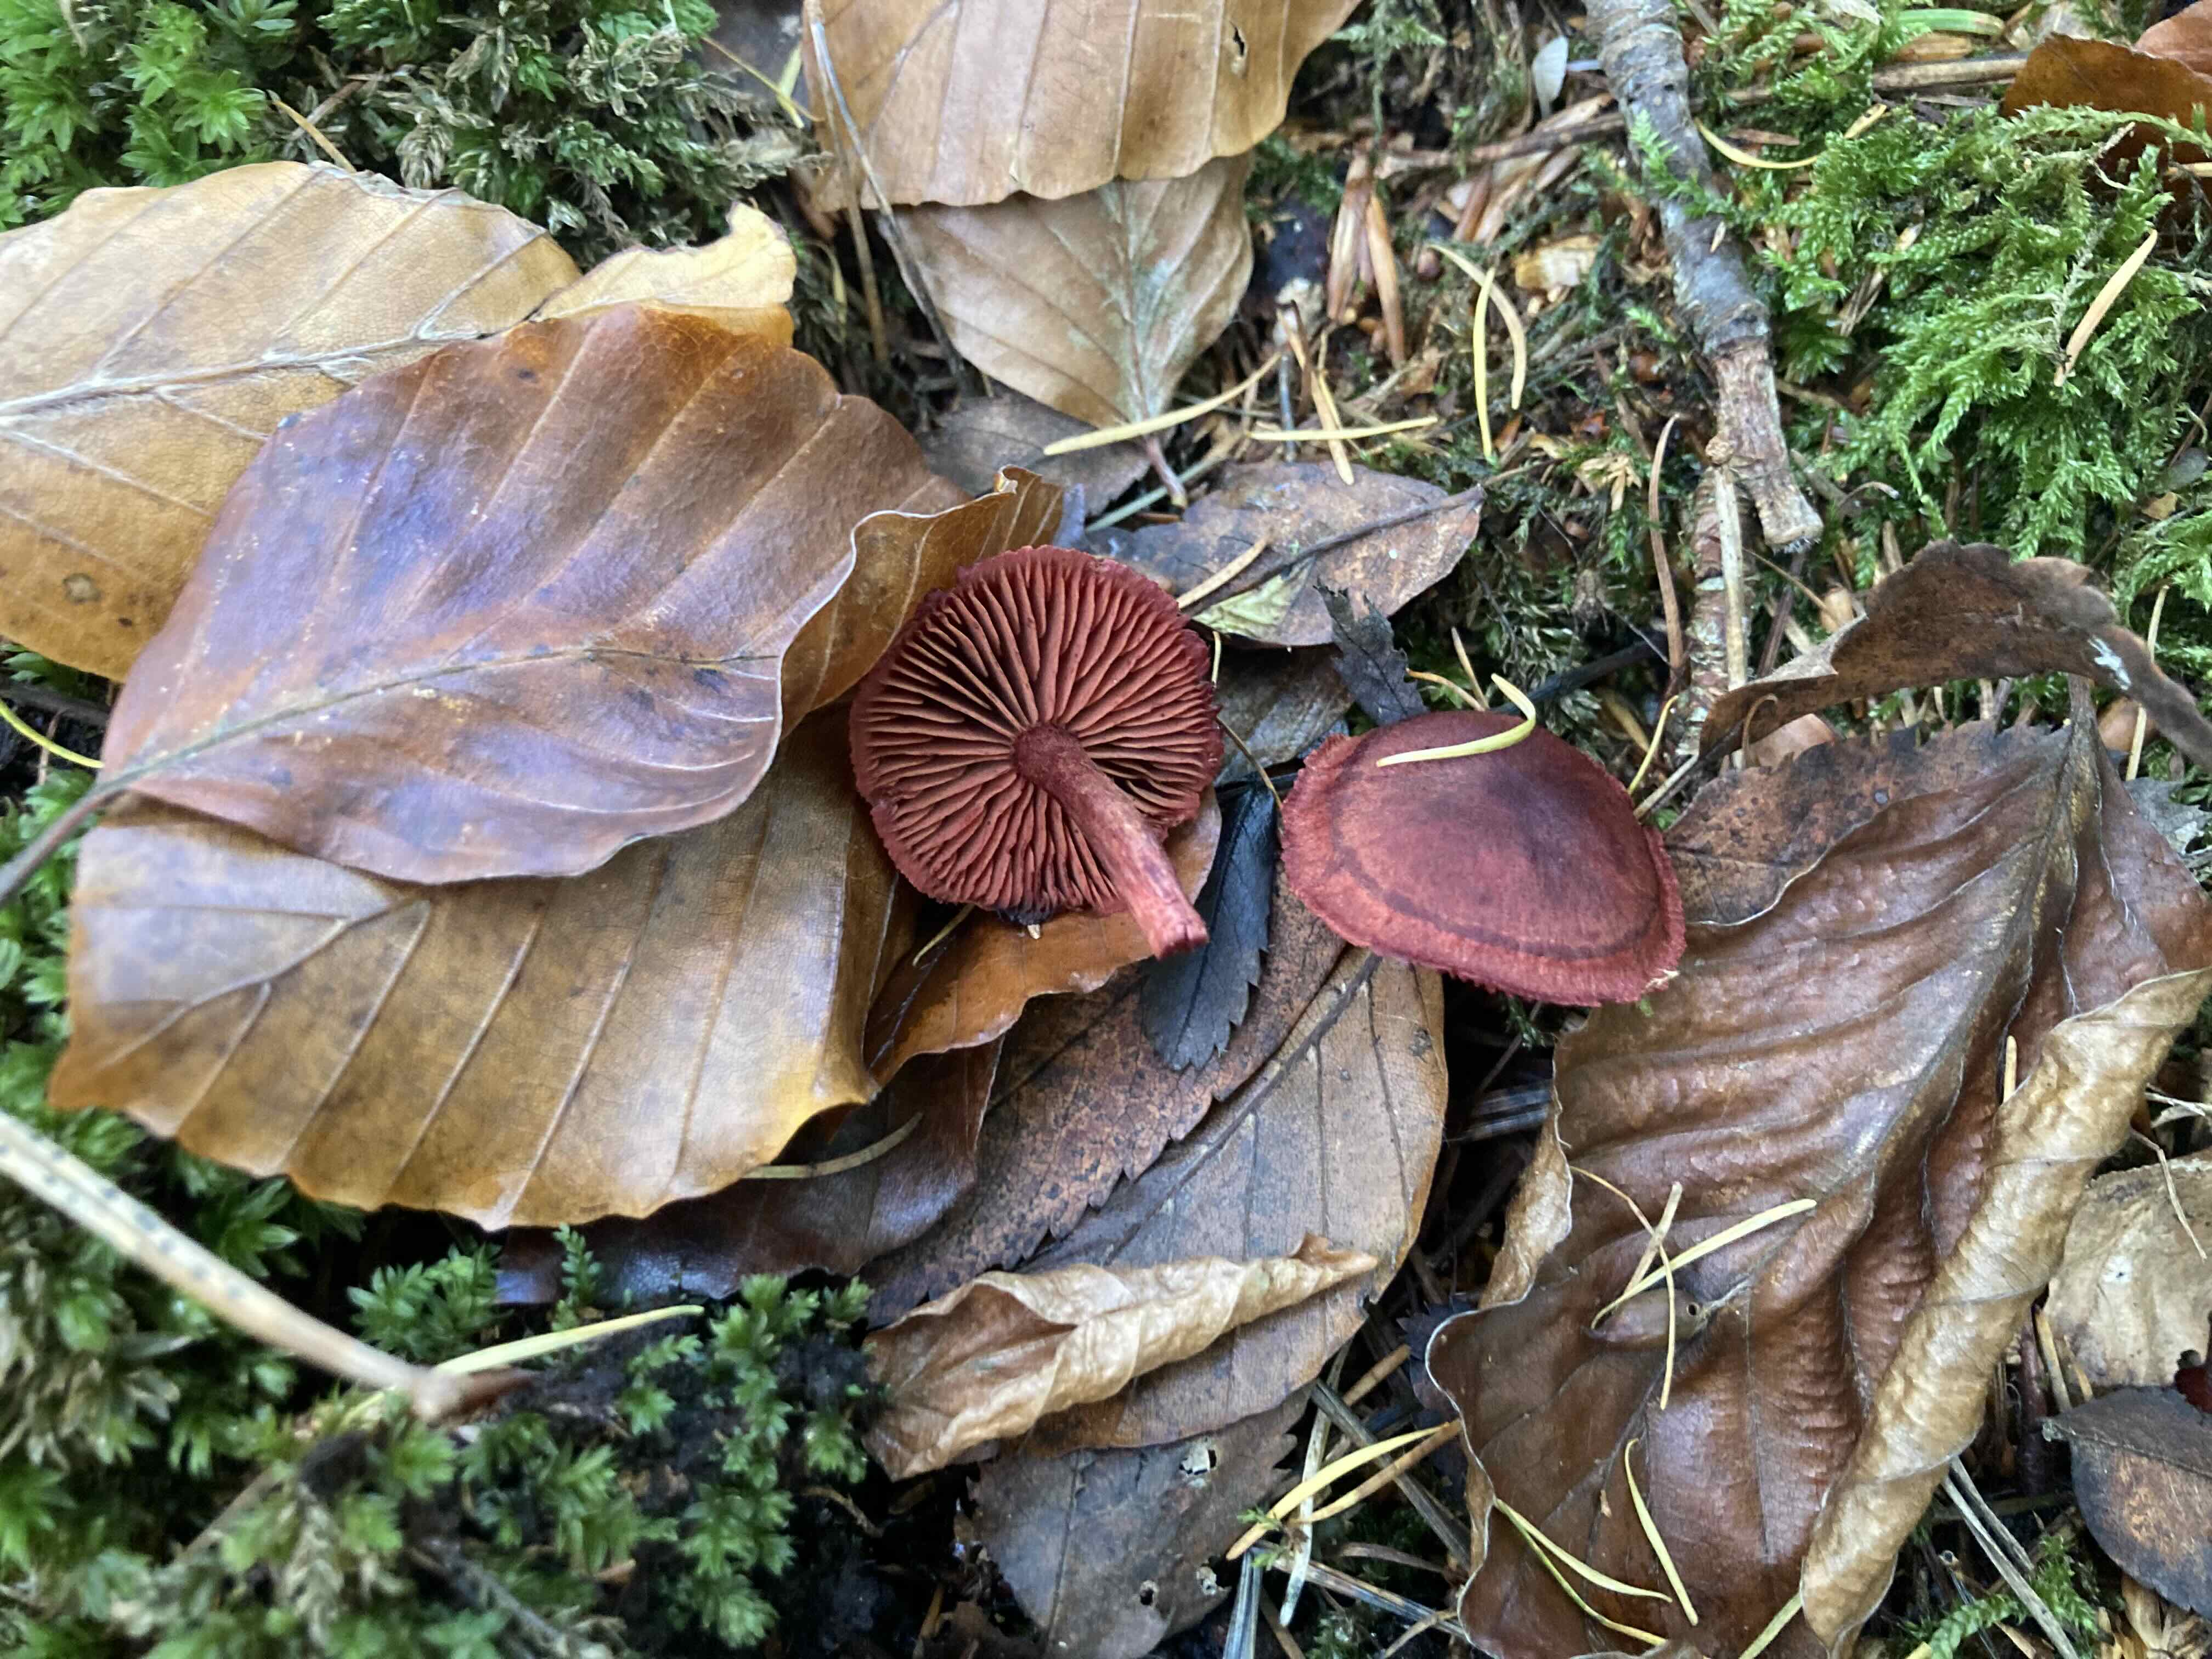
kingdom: Fungi
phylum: Basidiomycota
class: Agaricomycetes
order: Agaricales
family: Cortinariaceae
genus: Cortinarius
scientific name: Cortinarius sanguineus
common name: Bloodred webcap
